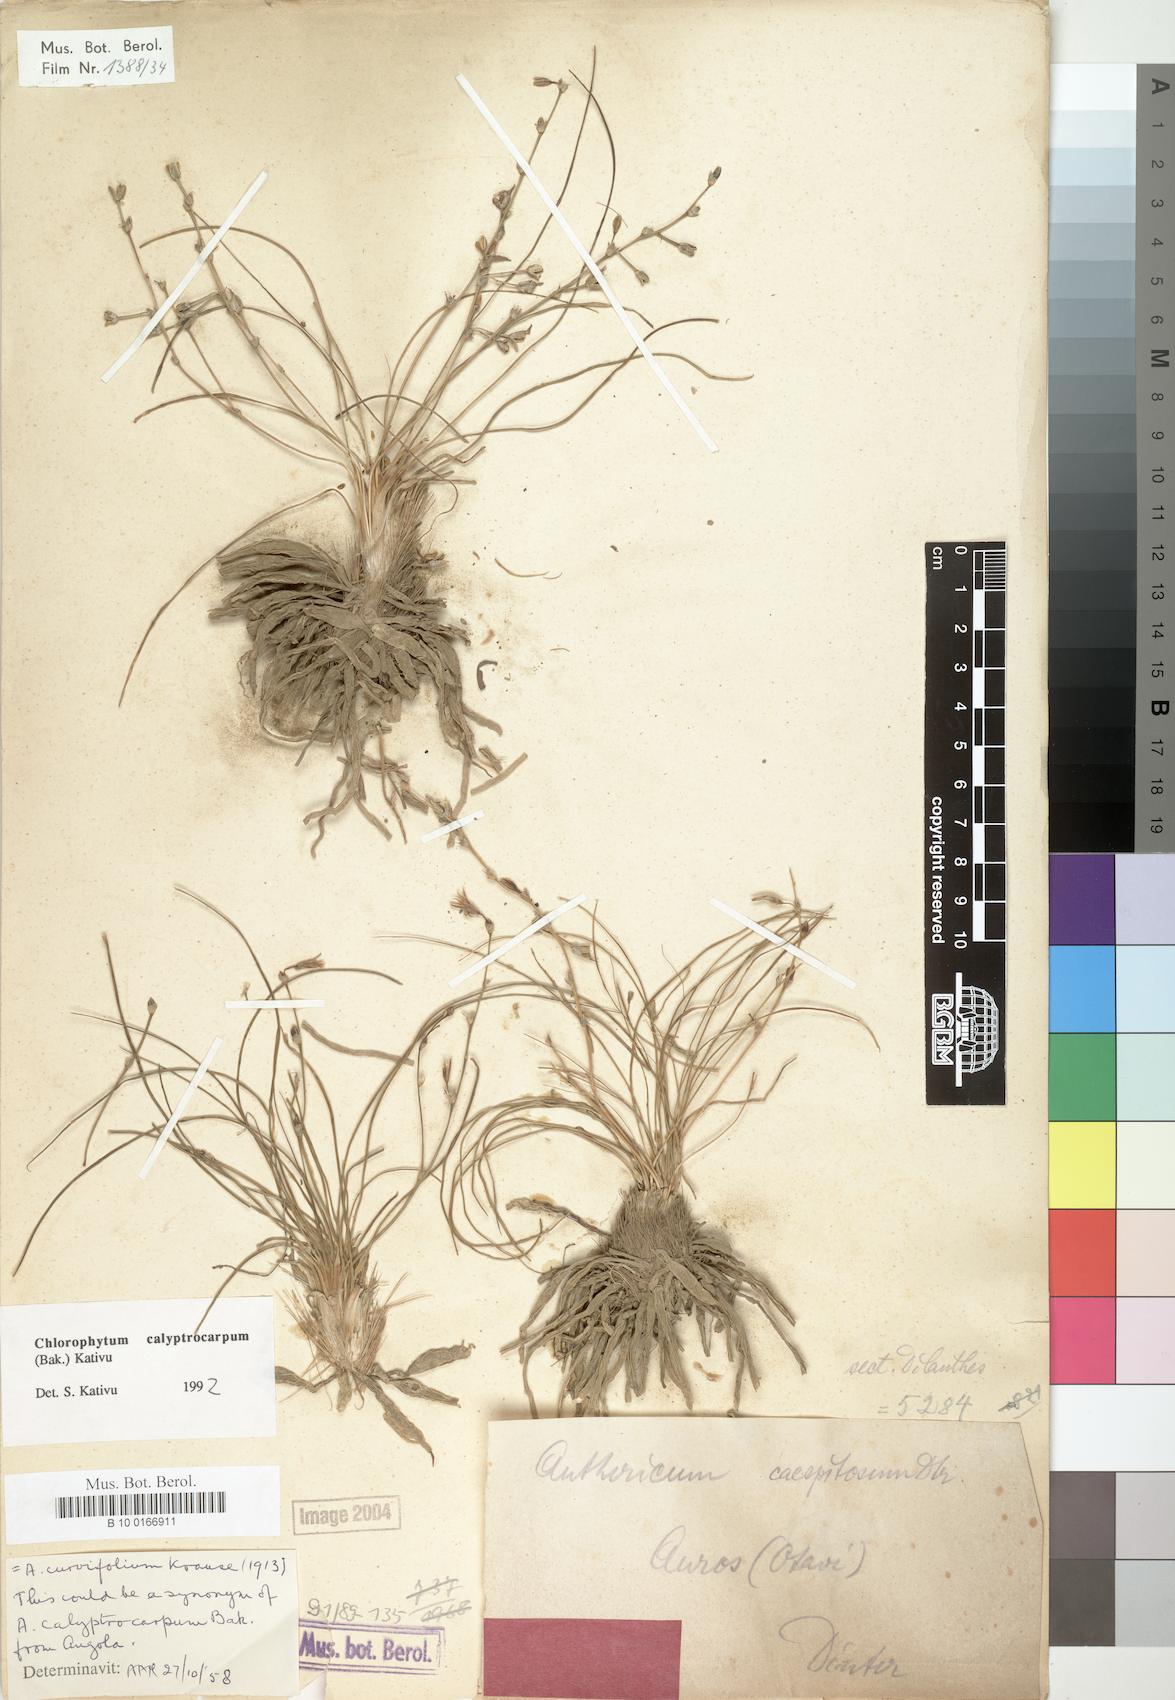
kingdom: Plantae
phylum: Tracheophyta
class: Liliopsida
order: Asparagales
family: Asparagaceae
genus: Chlorophytum
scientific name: Chlorophytum calyptrocarpum
